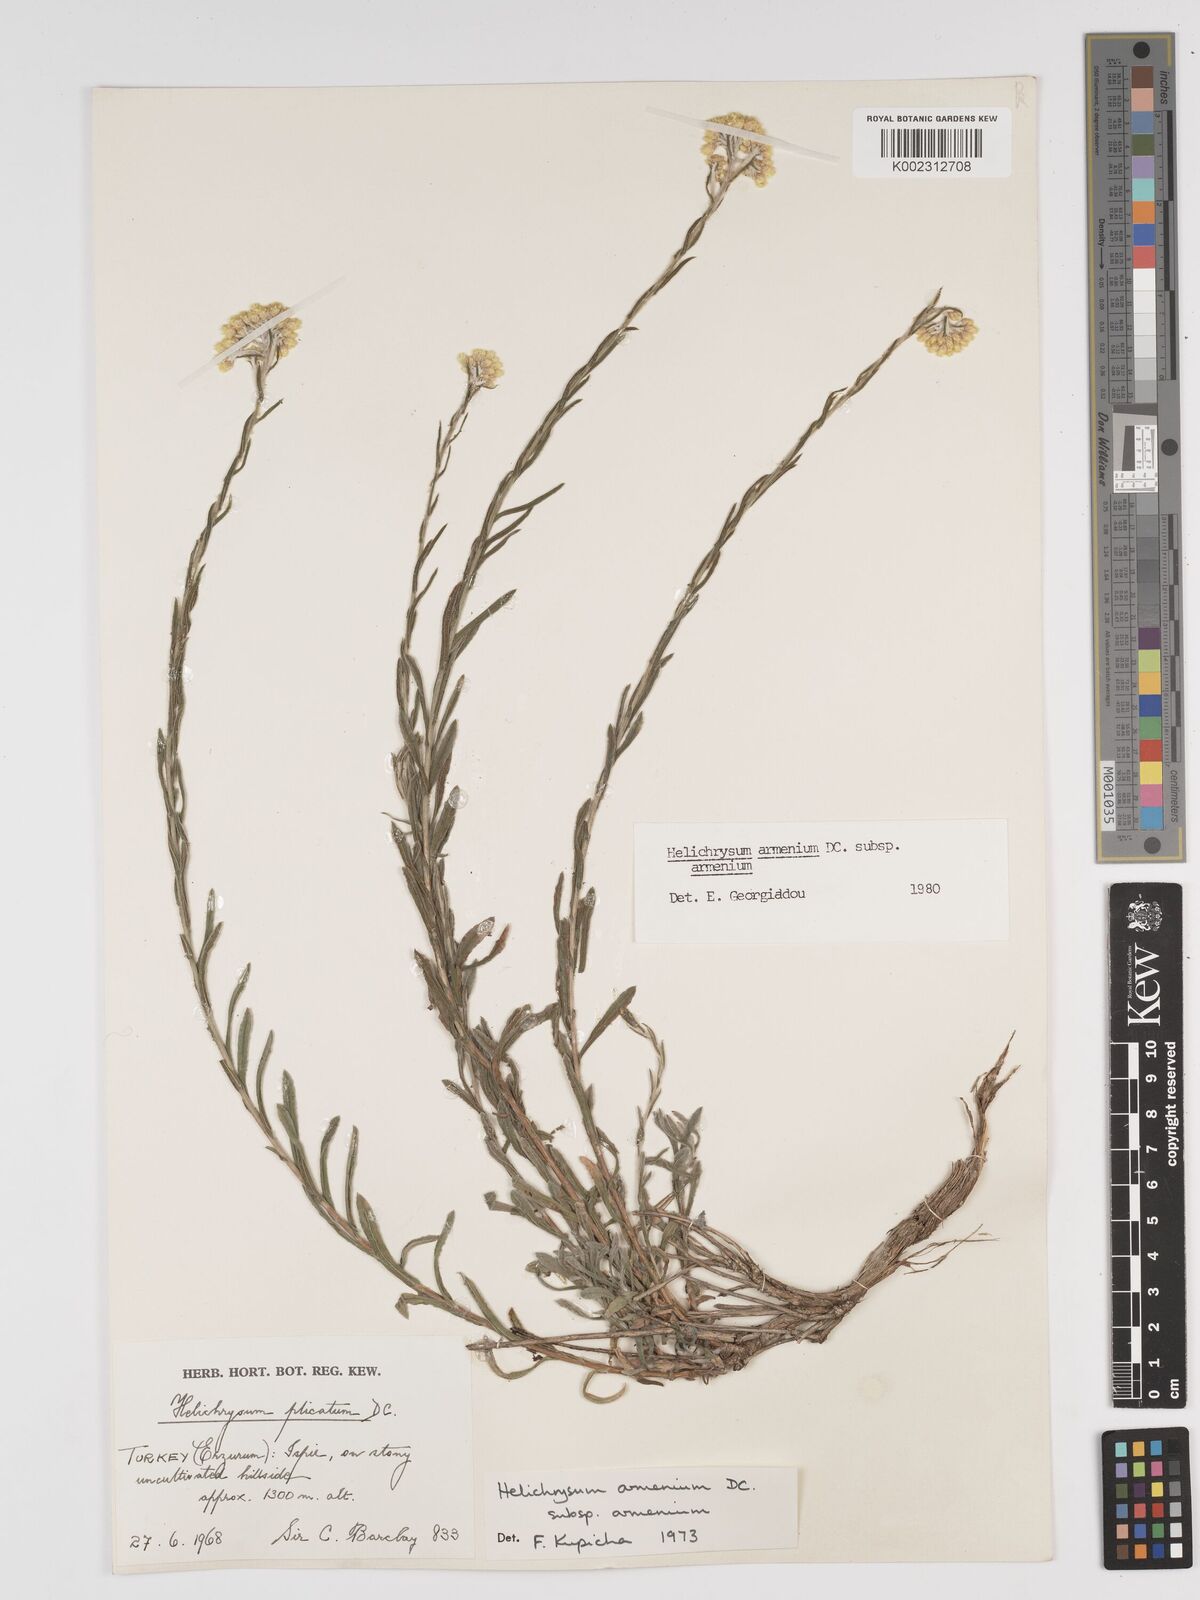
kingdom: Plantae
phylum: Tracheophyta
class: Magnoliopsida
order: Asterales
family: Asteraceae
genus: Helichrysum
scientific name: Helichrysum armenium
